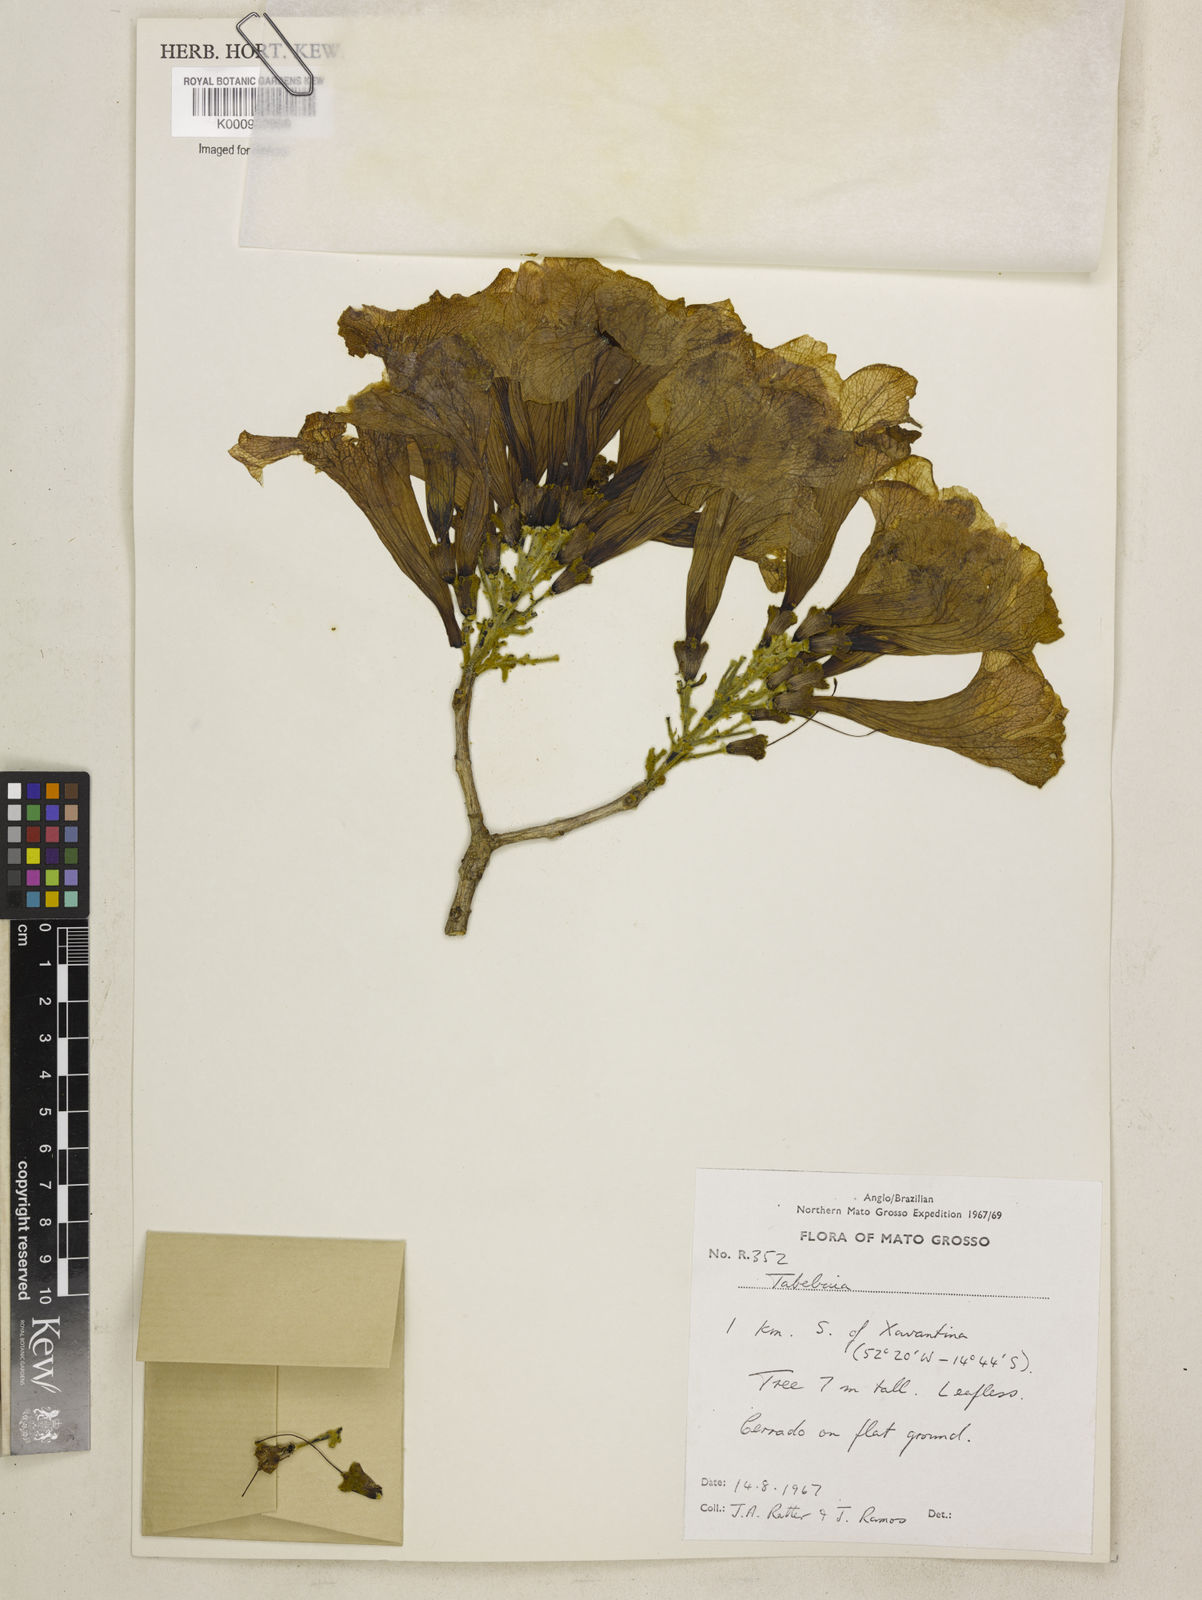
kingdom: Plantae
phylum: Tracheophyta
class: Magnoliopsida
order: Lamiales
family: Bignoniaceae
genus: Handroanthus
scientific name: Handroanthus serratifolius
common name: Yellow ipe
